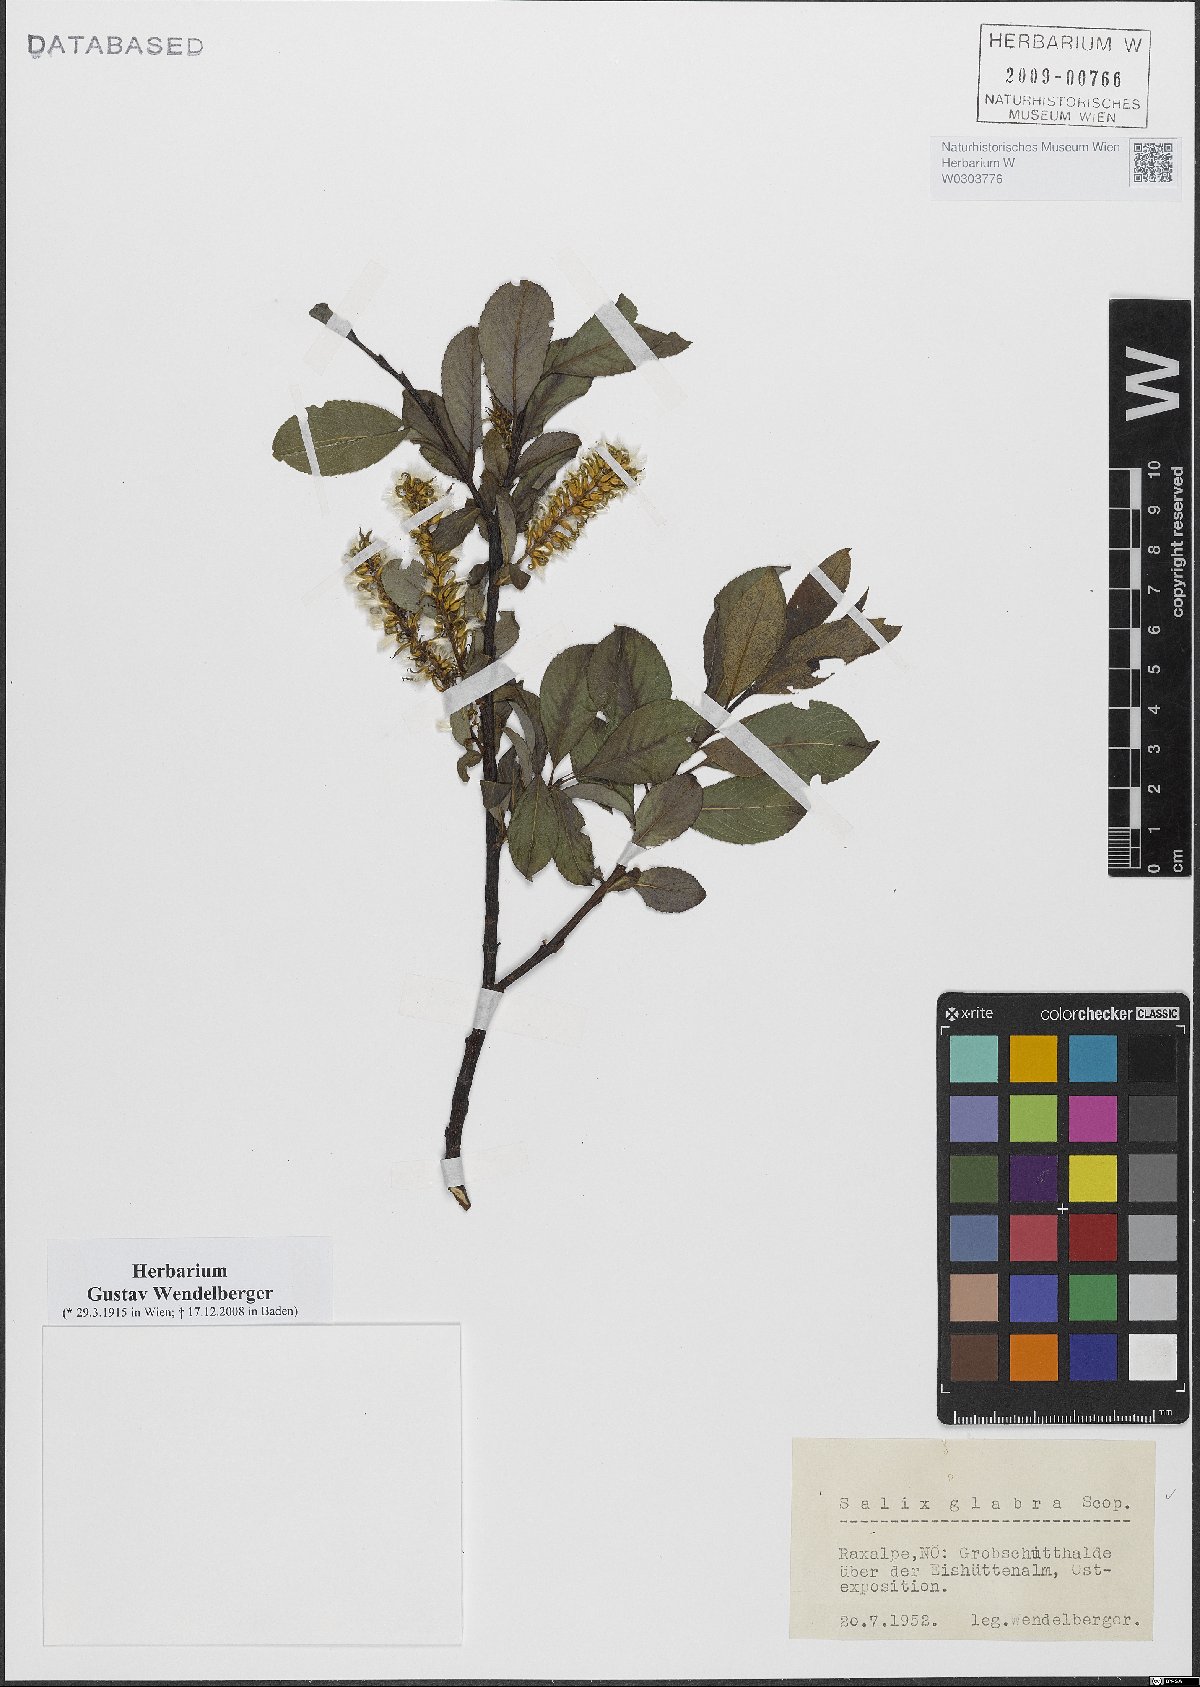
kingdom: Plantae
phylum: Tracheophyta
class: Magnoliopsida
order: Malpighiales
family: Salicaceae
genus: Salix
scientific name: Salix glabra
